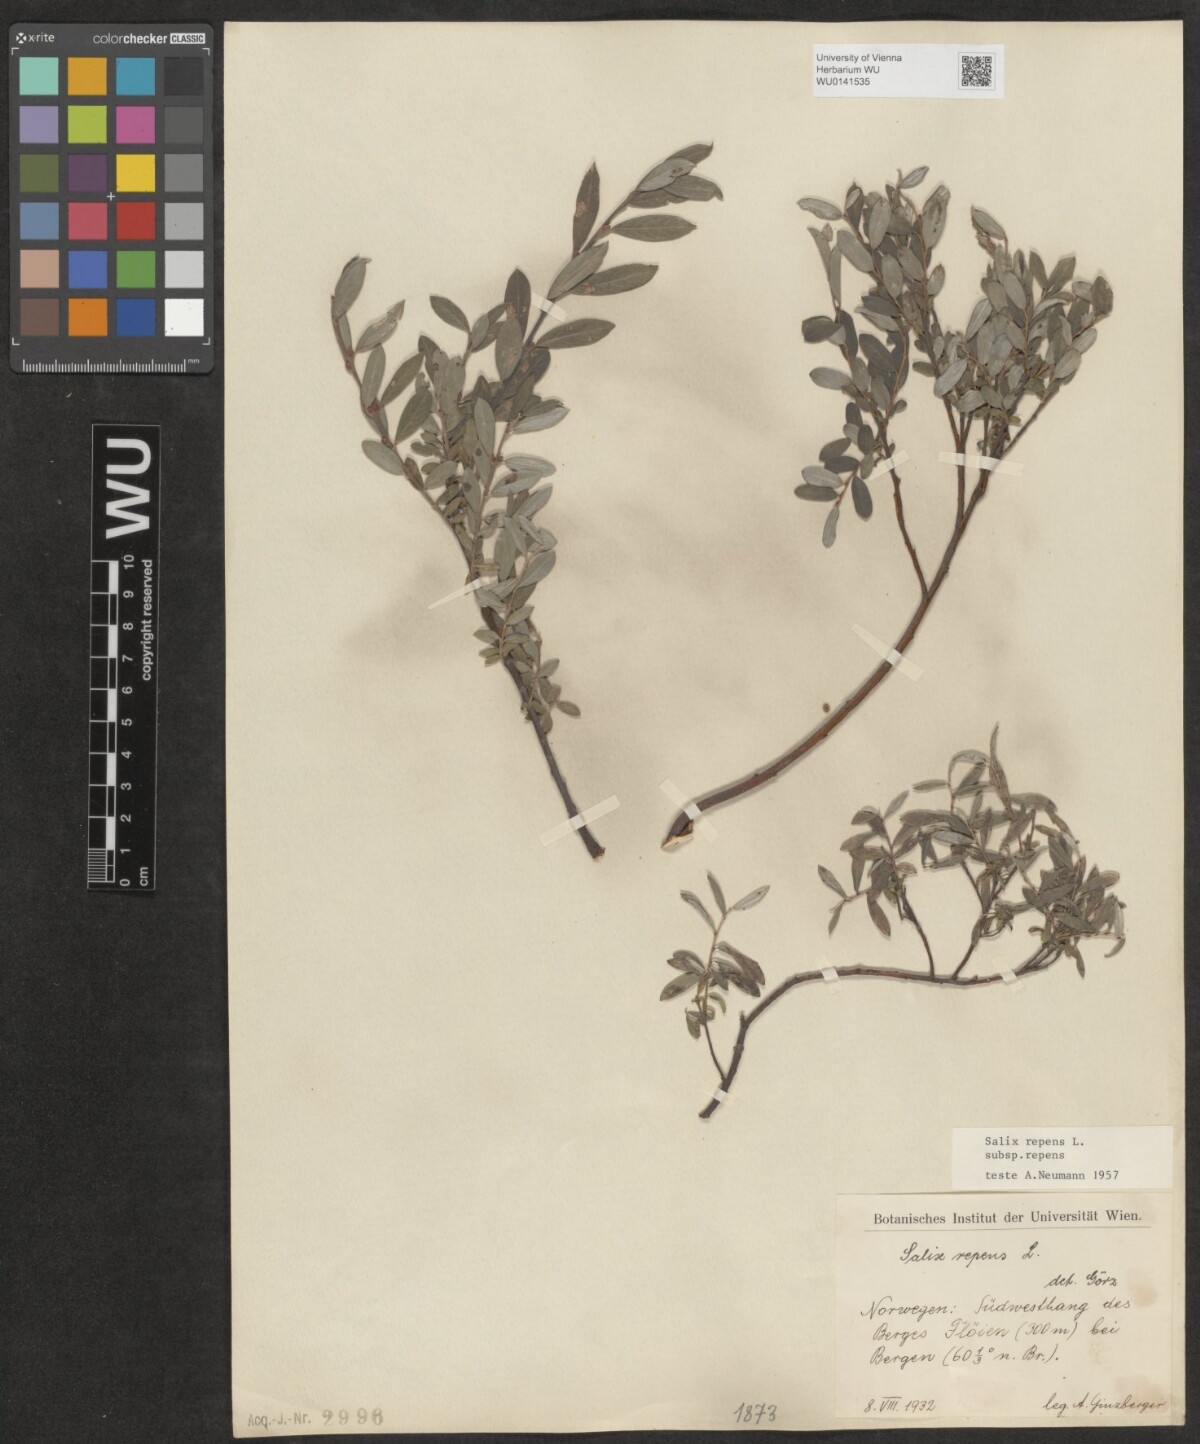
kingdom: Plantae
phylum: Tracheophyta
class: Magnoliopsida
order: Malpighiales
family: Salicaceae
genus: Salix
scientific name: Salix repens
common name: Creeping willow
